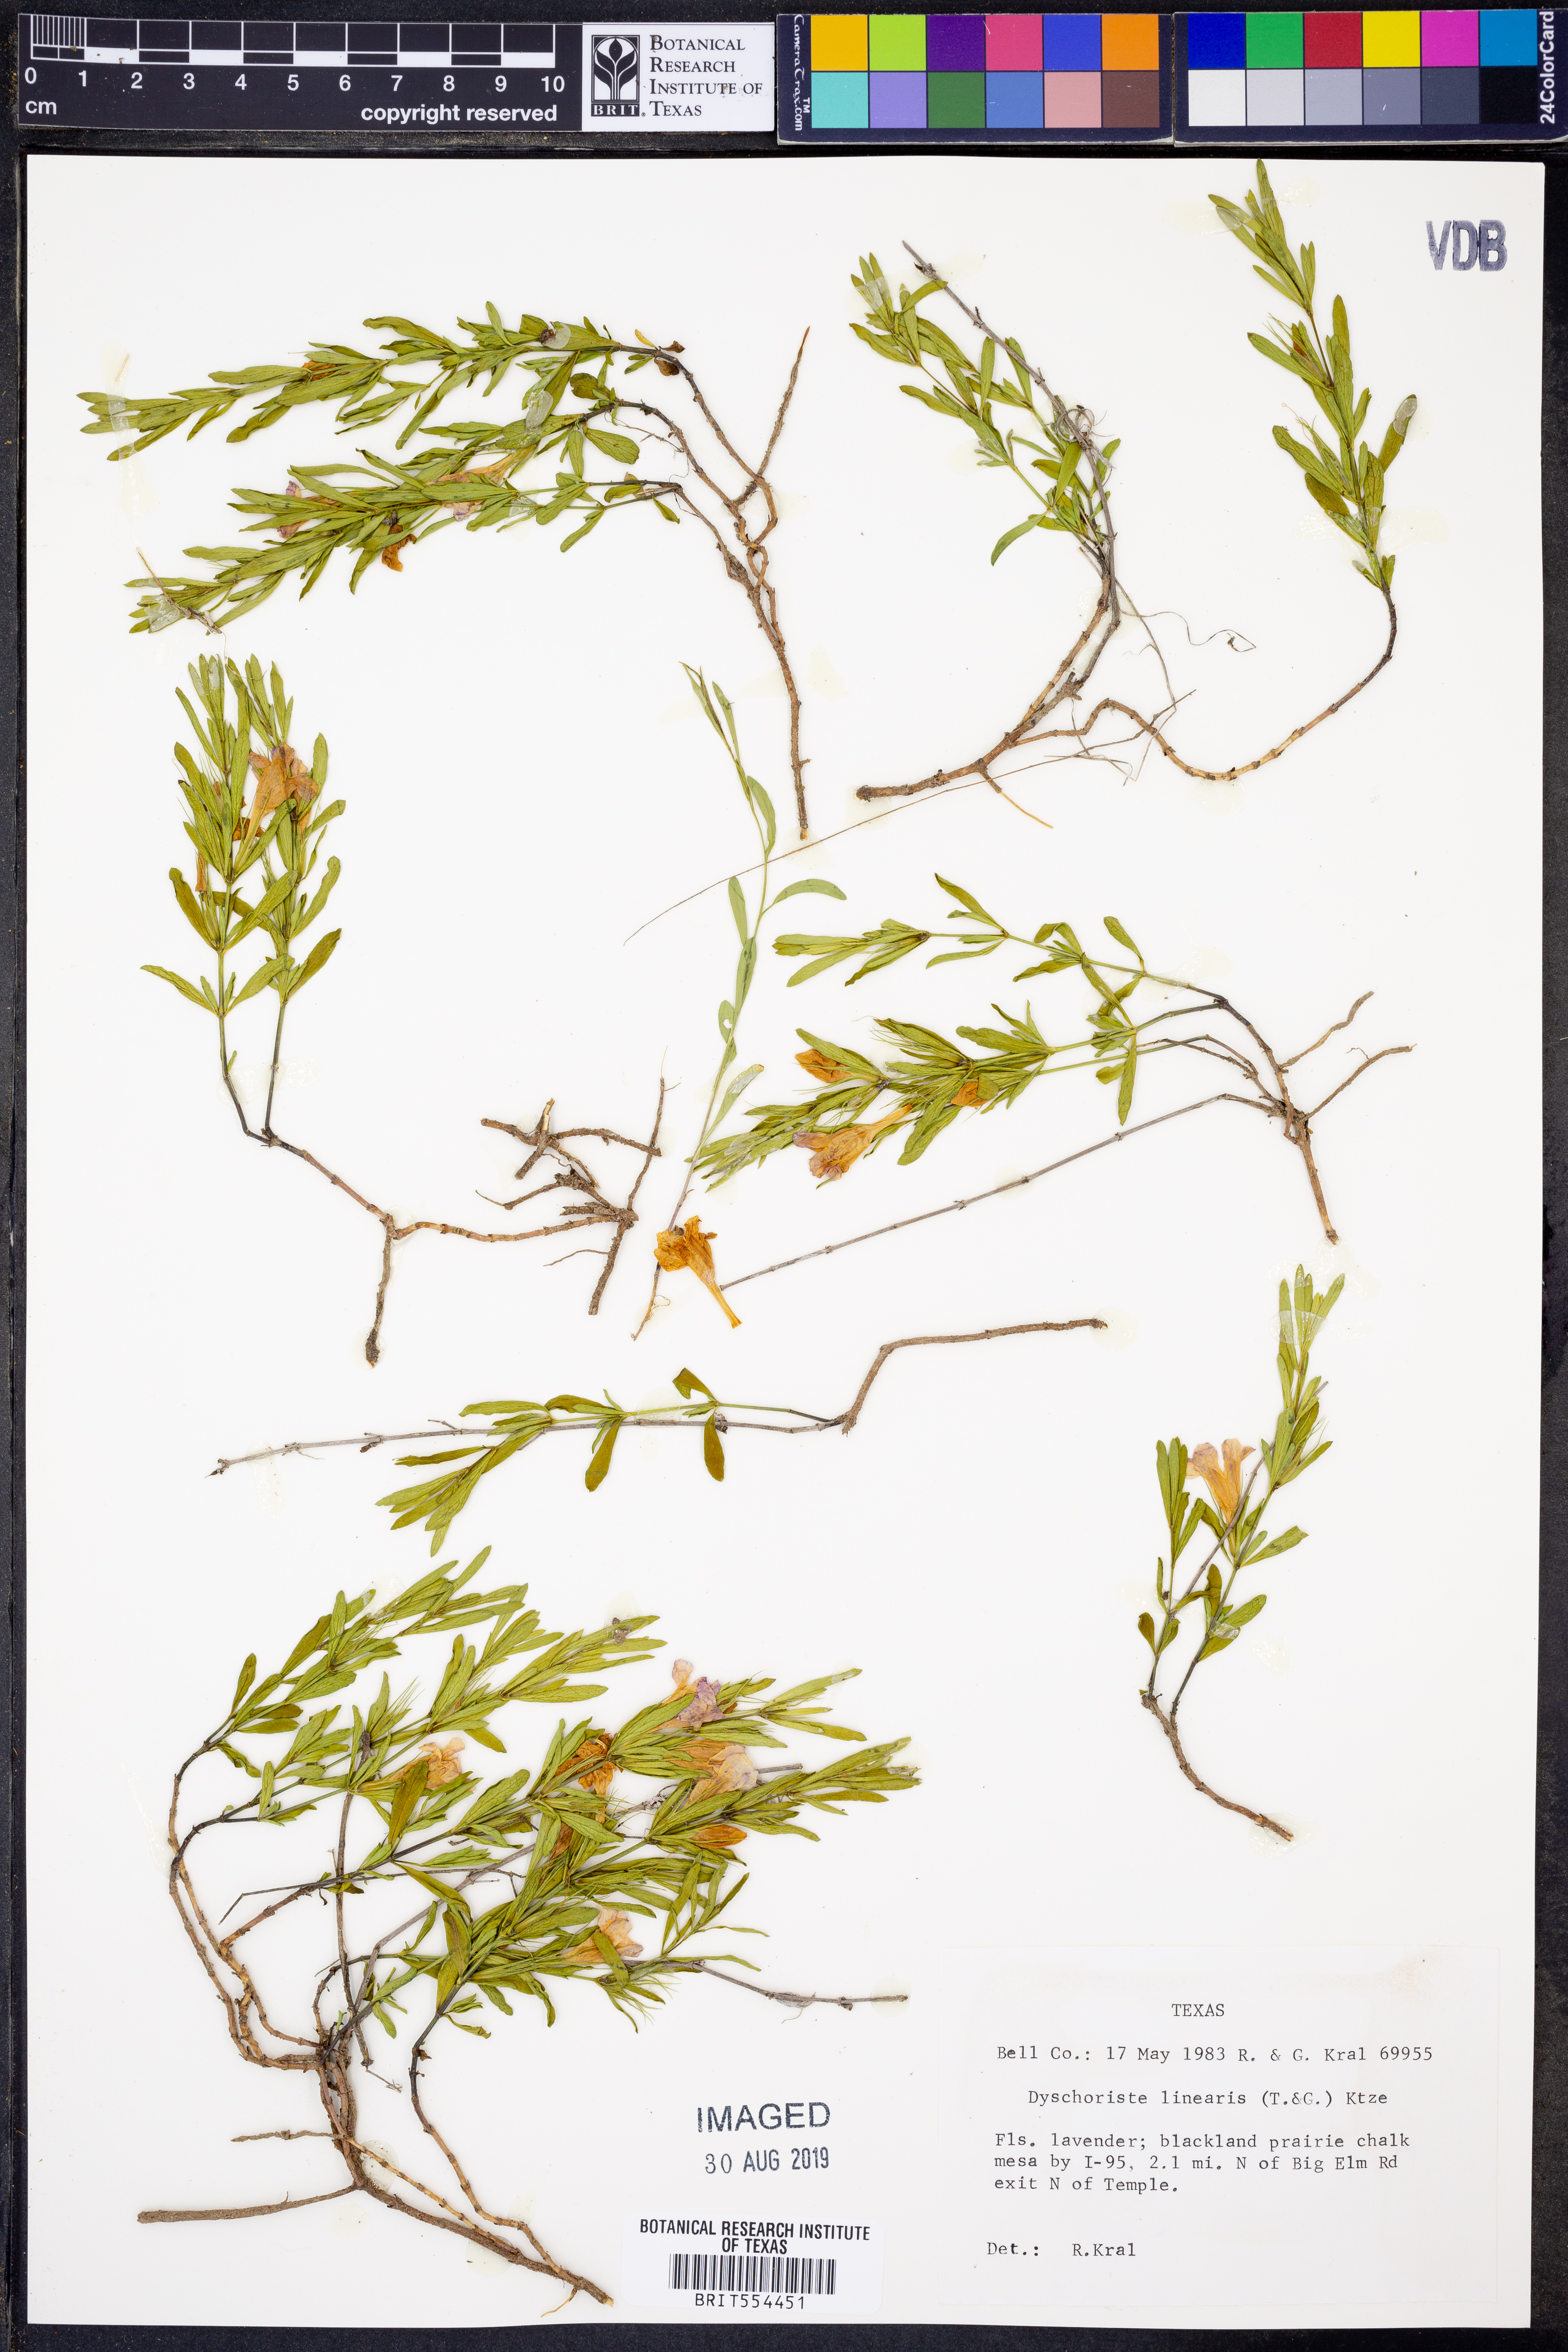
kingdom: Plantae
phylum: Tracheophyta
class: Magnoliopsida
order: Lamiales
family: Acanthaceae
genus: Dyschoriste
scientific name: Dyschoriste linearis
